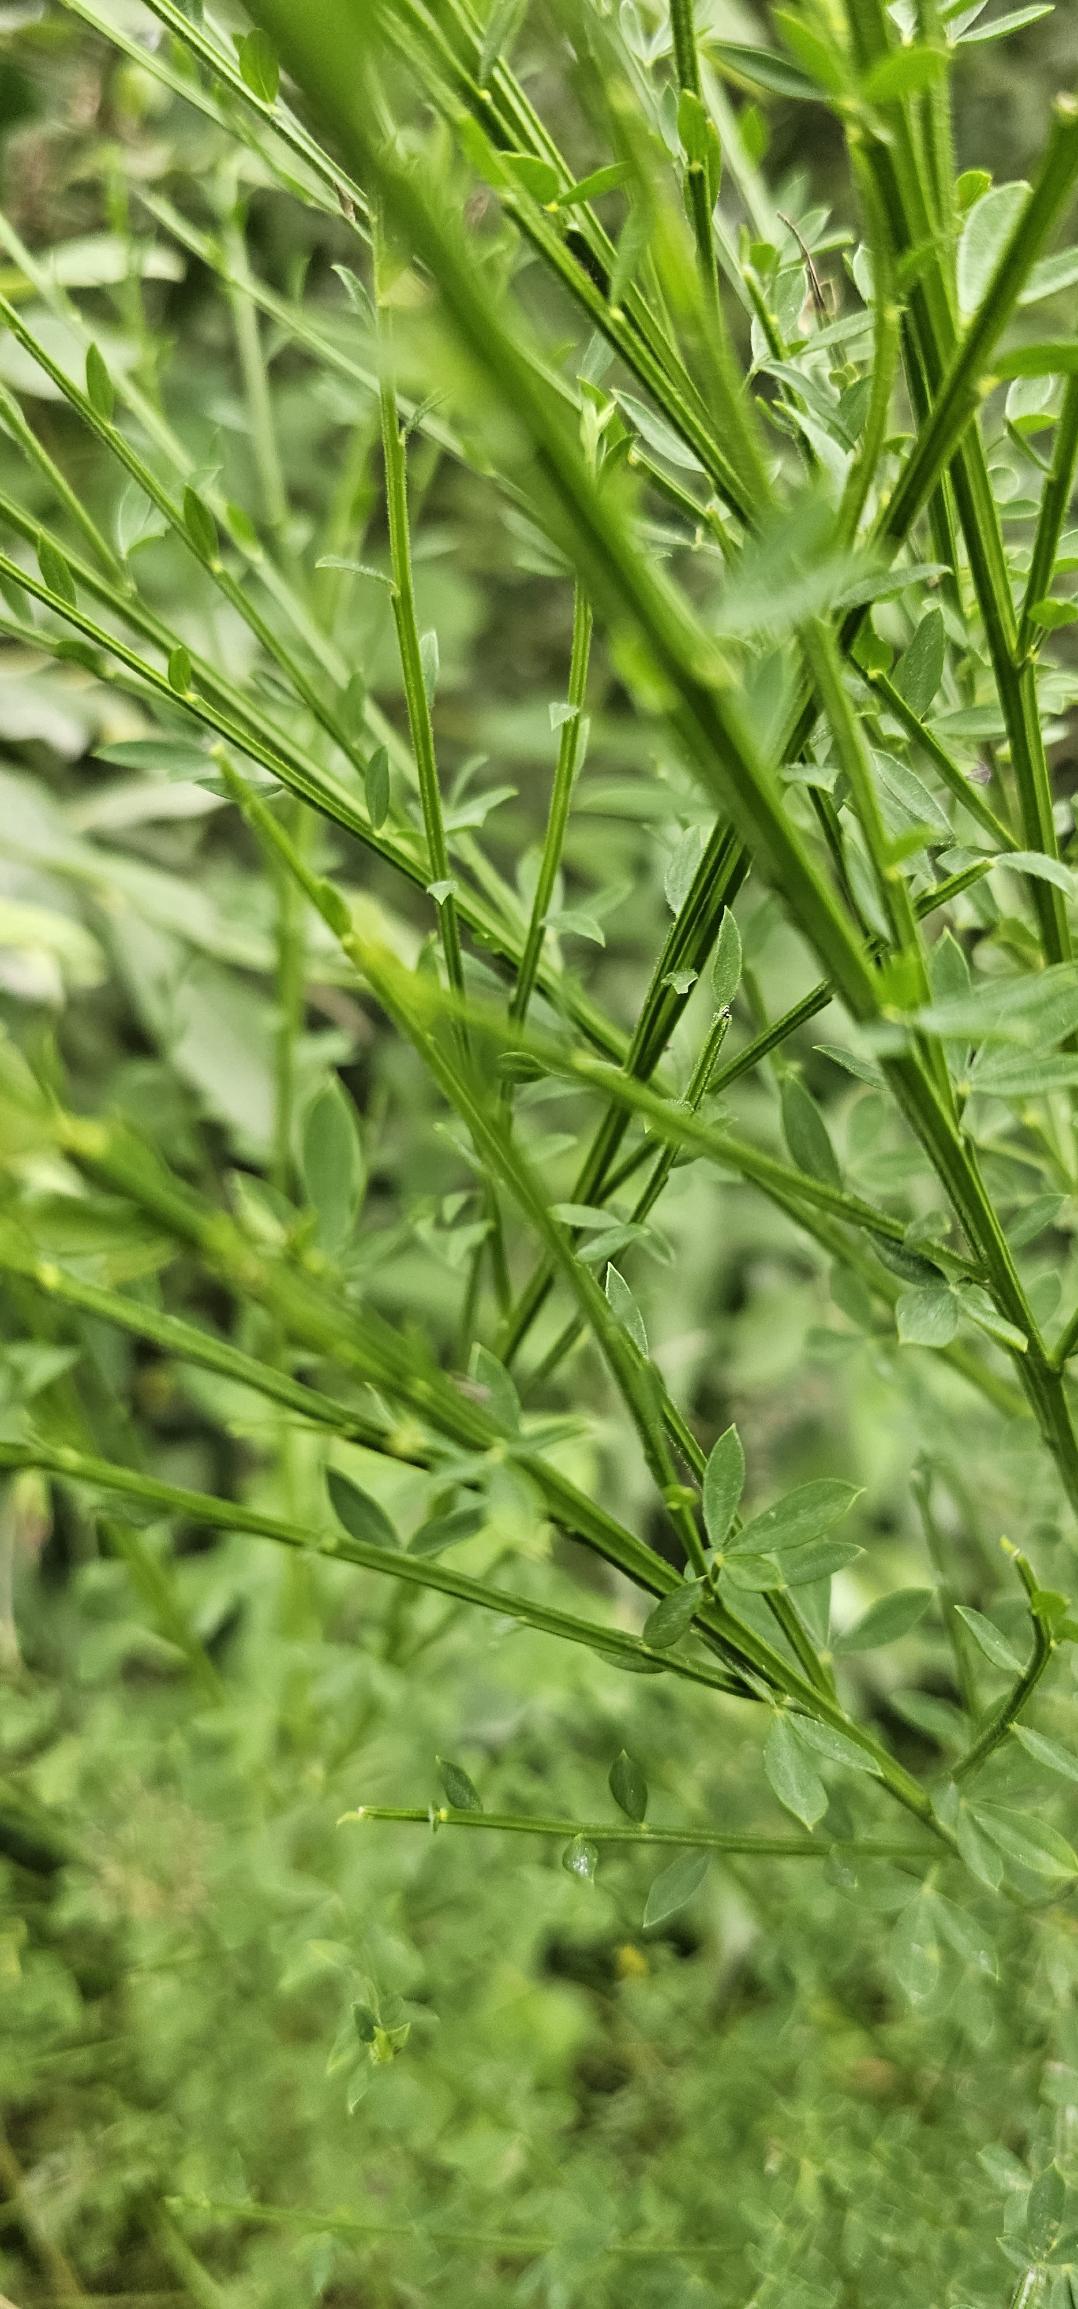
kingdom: Plantae
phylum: Tracheophyta
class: Magnoliopsida
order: Fabales
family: Fabaceae
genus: Cytisus
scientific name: Cytisus scoparius
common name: Almindelig gyvel
